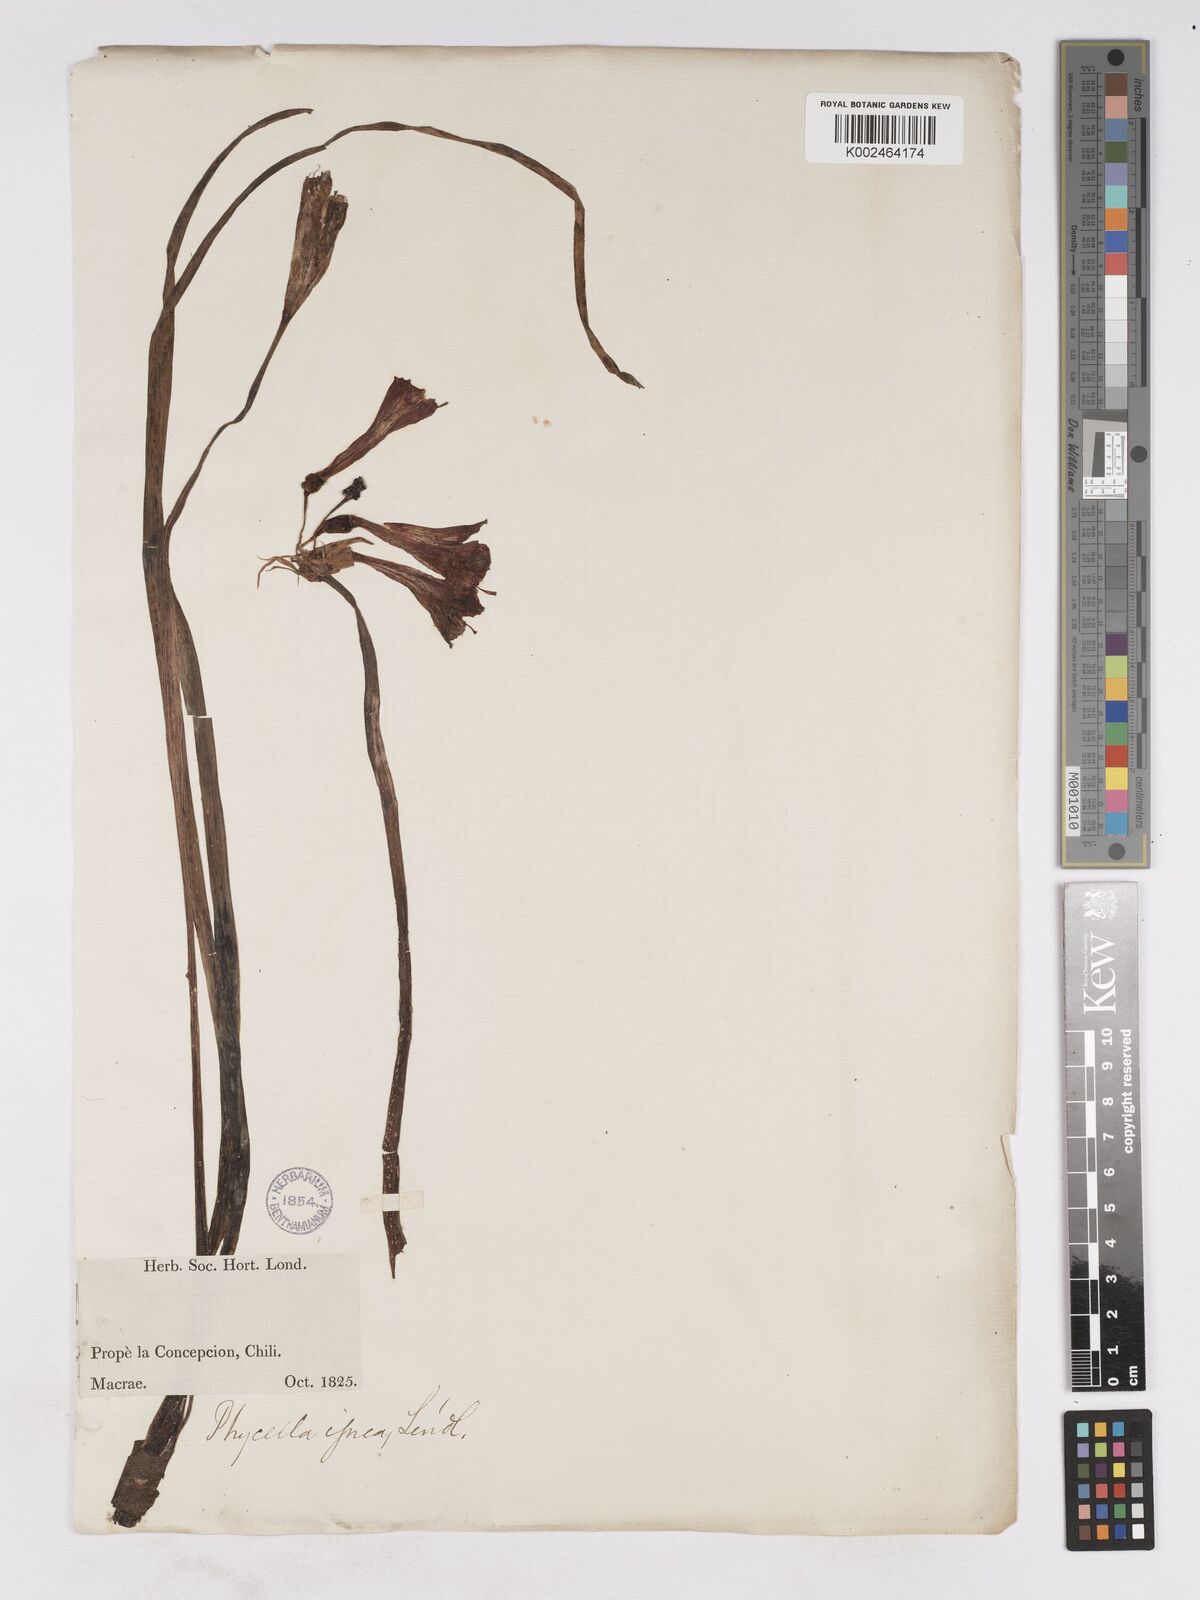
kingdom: Plantae
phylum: Tracheophyta
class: Liliopsida
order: Asparagales
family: Amaryllidaceae
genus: Phycella
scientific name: Phycella cyrtanthoides
